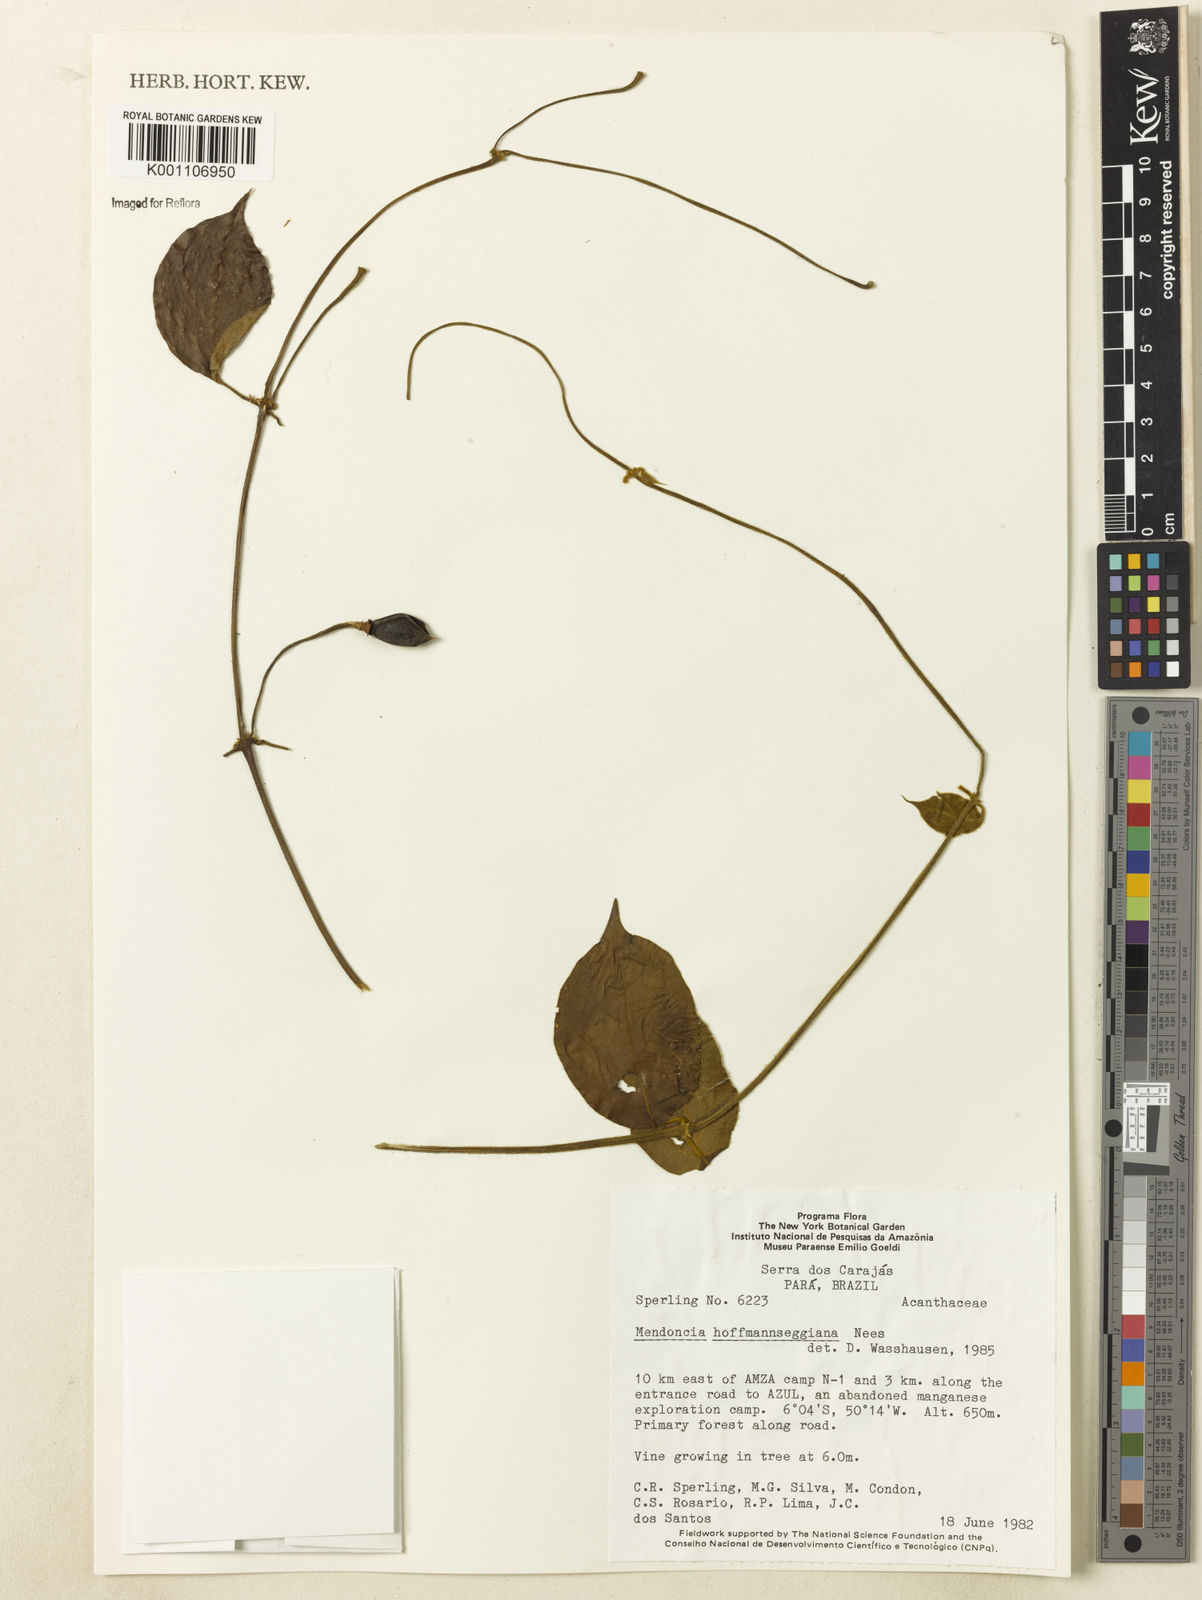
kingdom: Plantae
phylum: Tracheophyta
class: Magnoliopsida
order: Lamiales
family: Acanthaceae
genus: Mendoncia
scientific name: Mendoncia hoffmannseggiana
